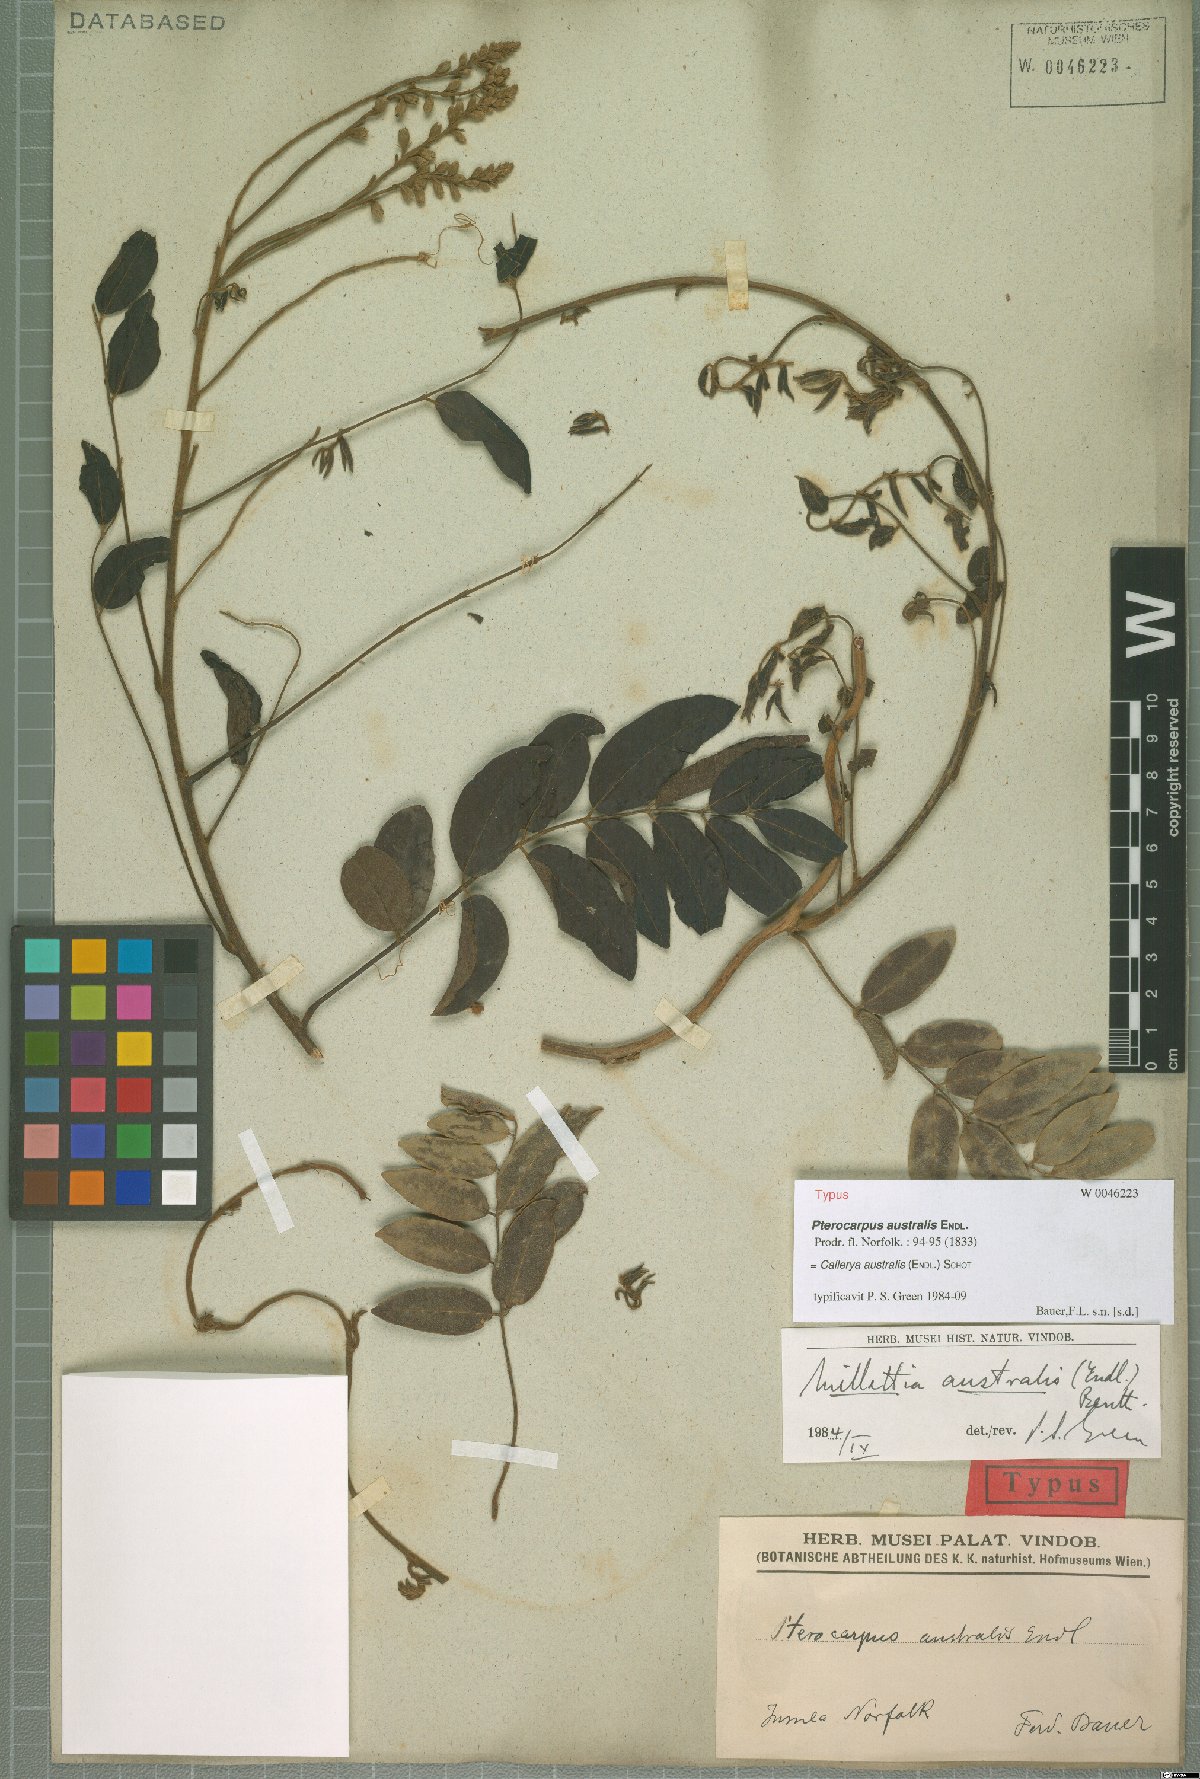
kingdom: Plantae
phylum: Tracheophyta
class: Magnoliopsida
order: Fabales
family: Fabaceae
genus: Austrocallerya
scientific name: Austrocallerya australis
